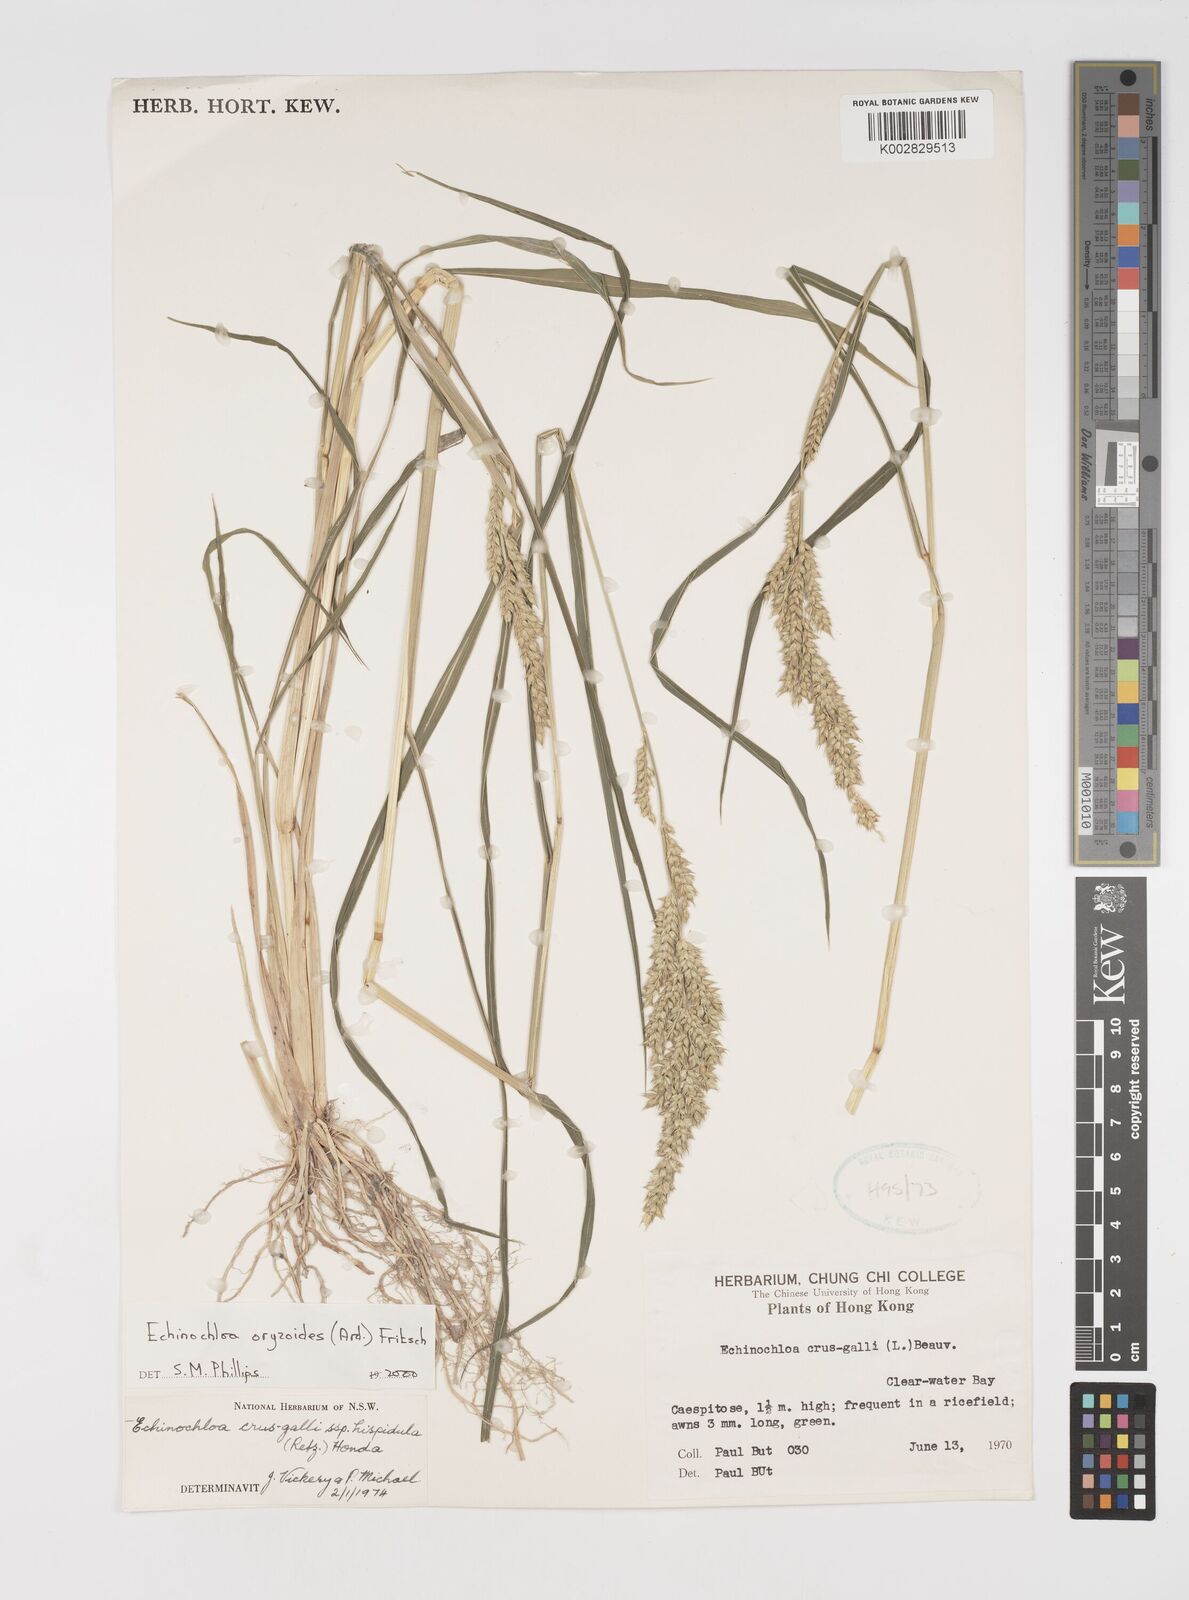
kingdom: Plantae
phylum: Tracheophyta
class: Liliopsida
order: Poales
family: Poaceae
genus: Echinochloa
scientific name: Echinochloa oryzoides
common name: Early water grass
